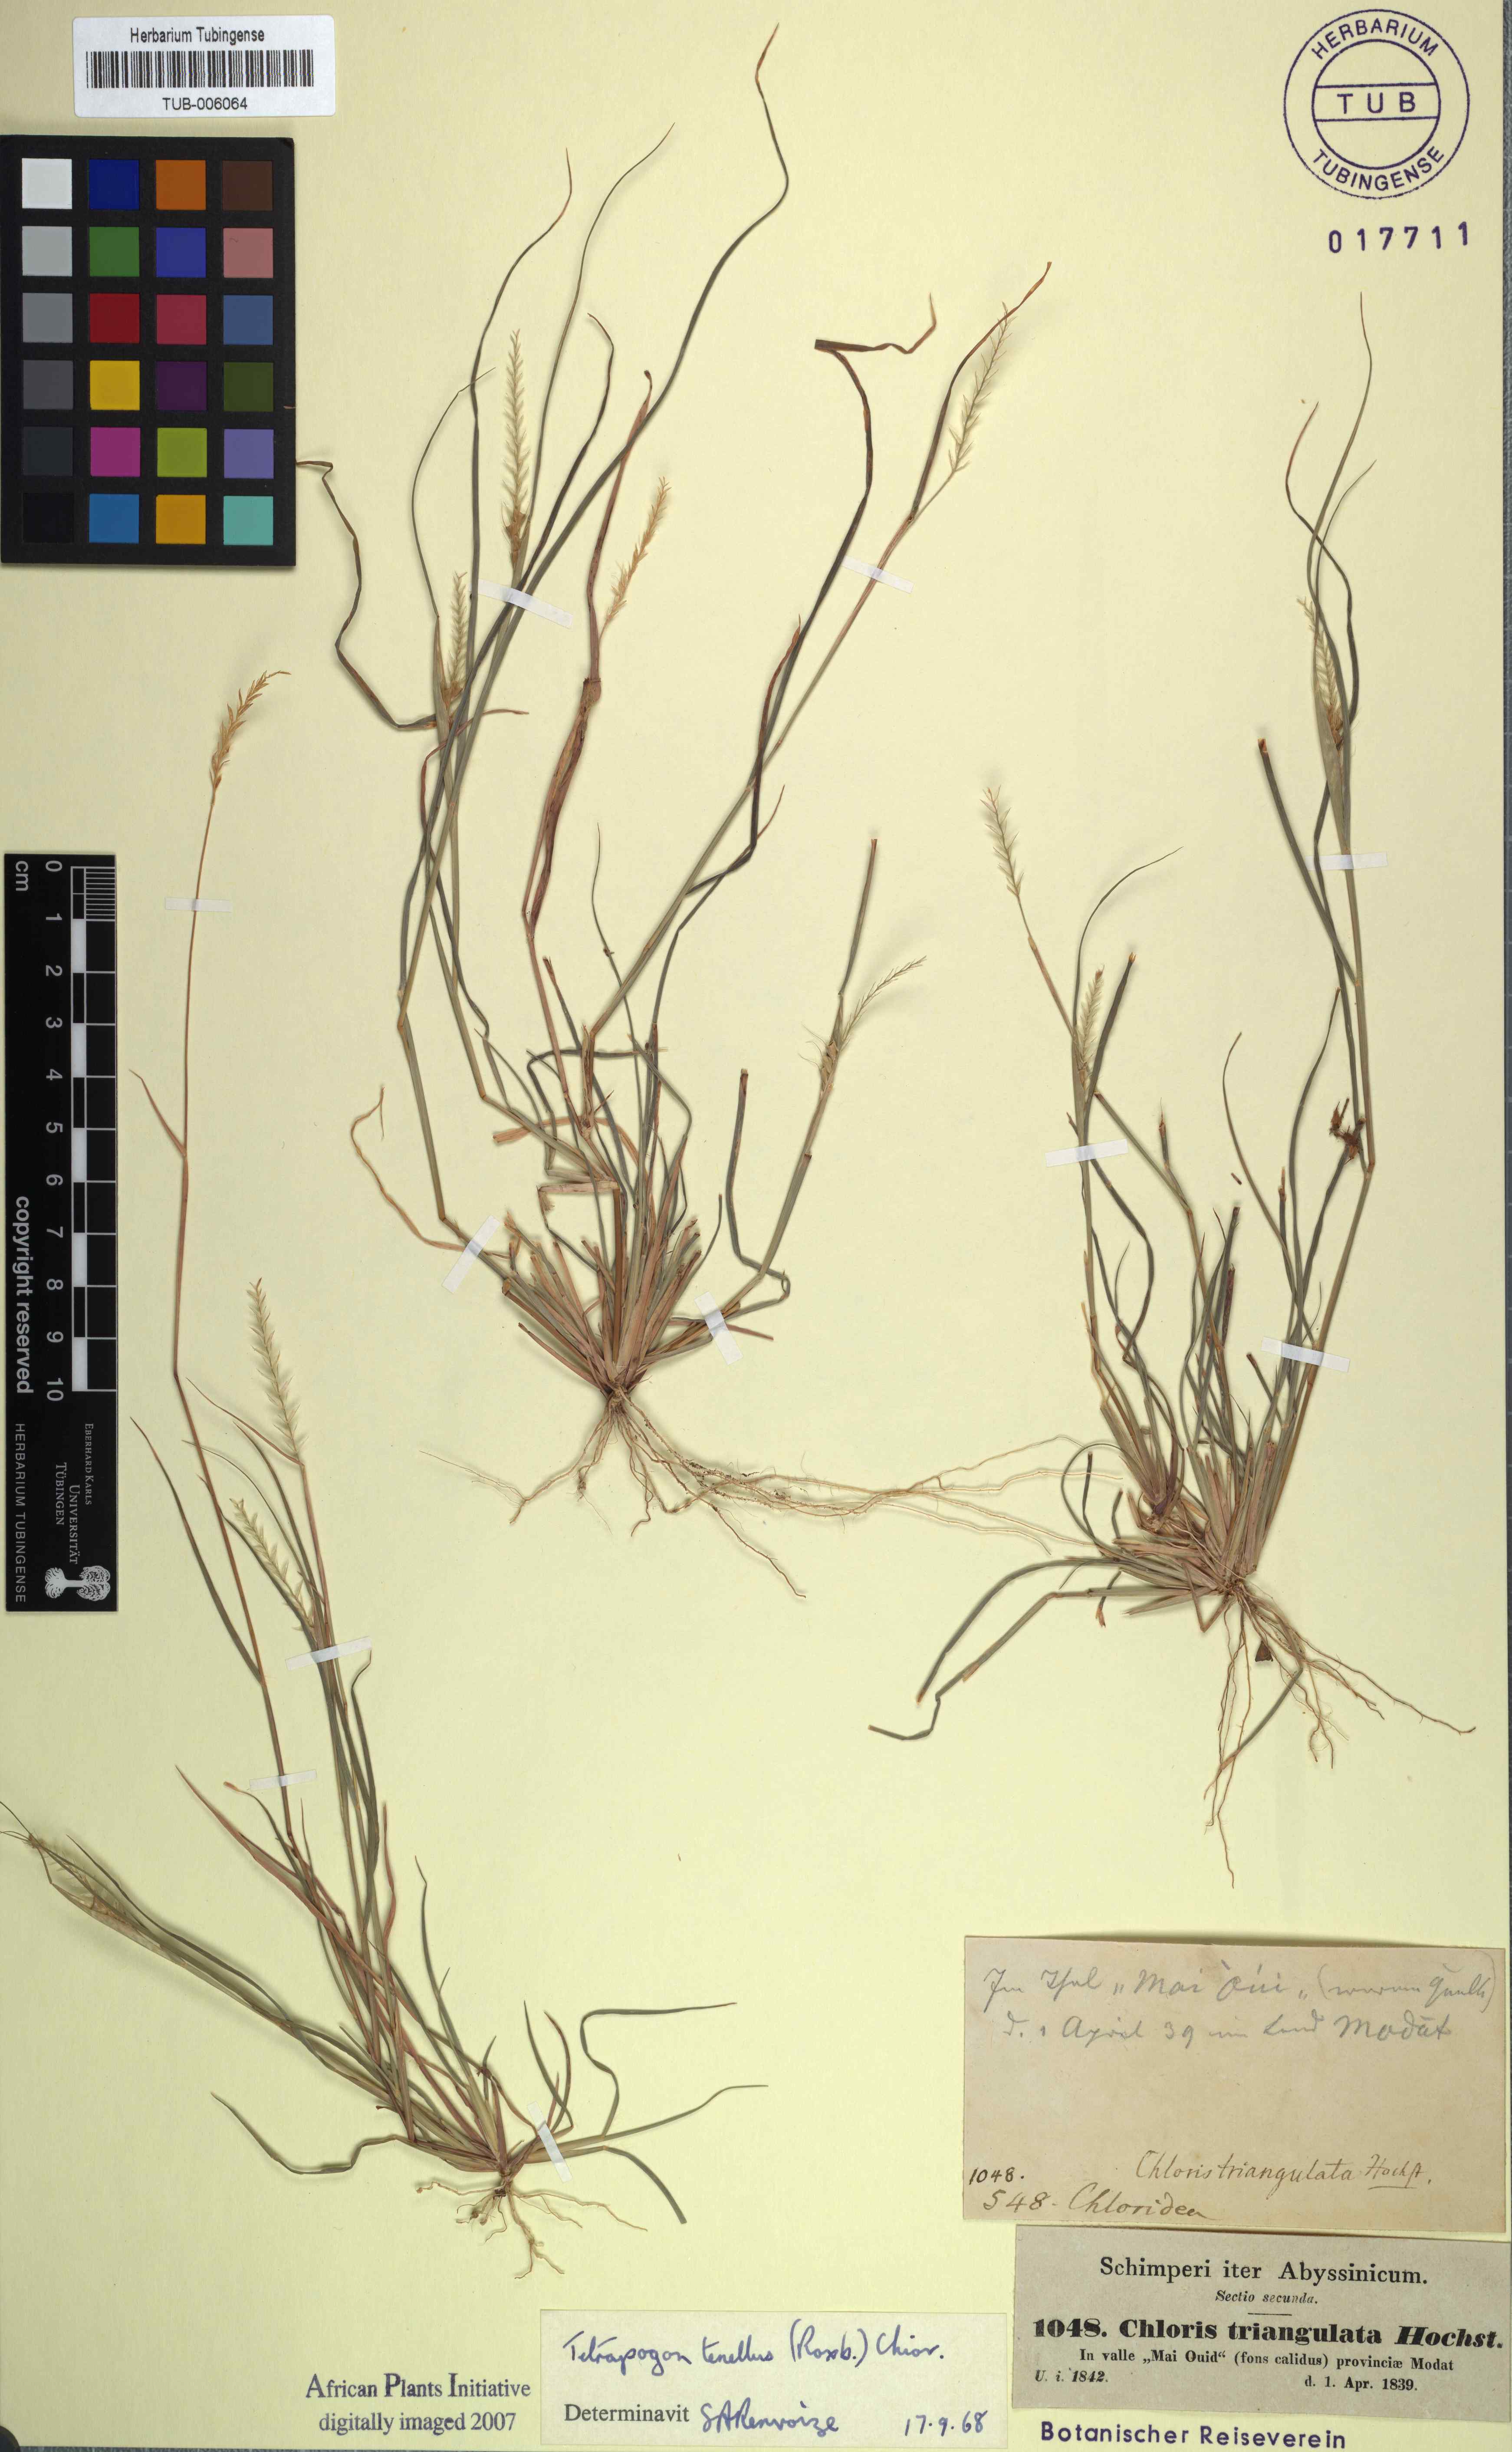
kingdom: Plantae
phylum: Tracheophyta
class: Liliopsida
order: Poales
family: Poaceae
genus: Tetrapogon
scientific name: Tetrapogon tenellus
